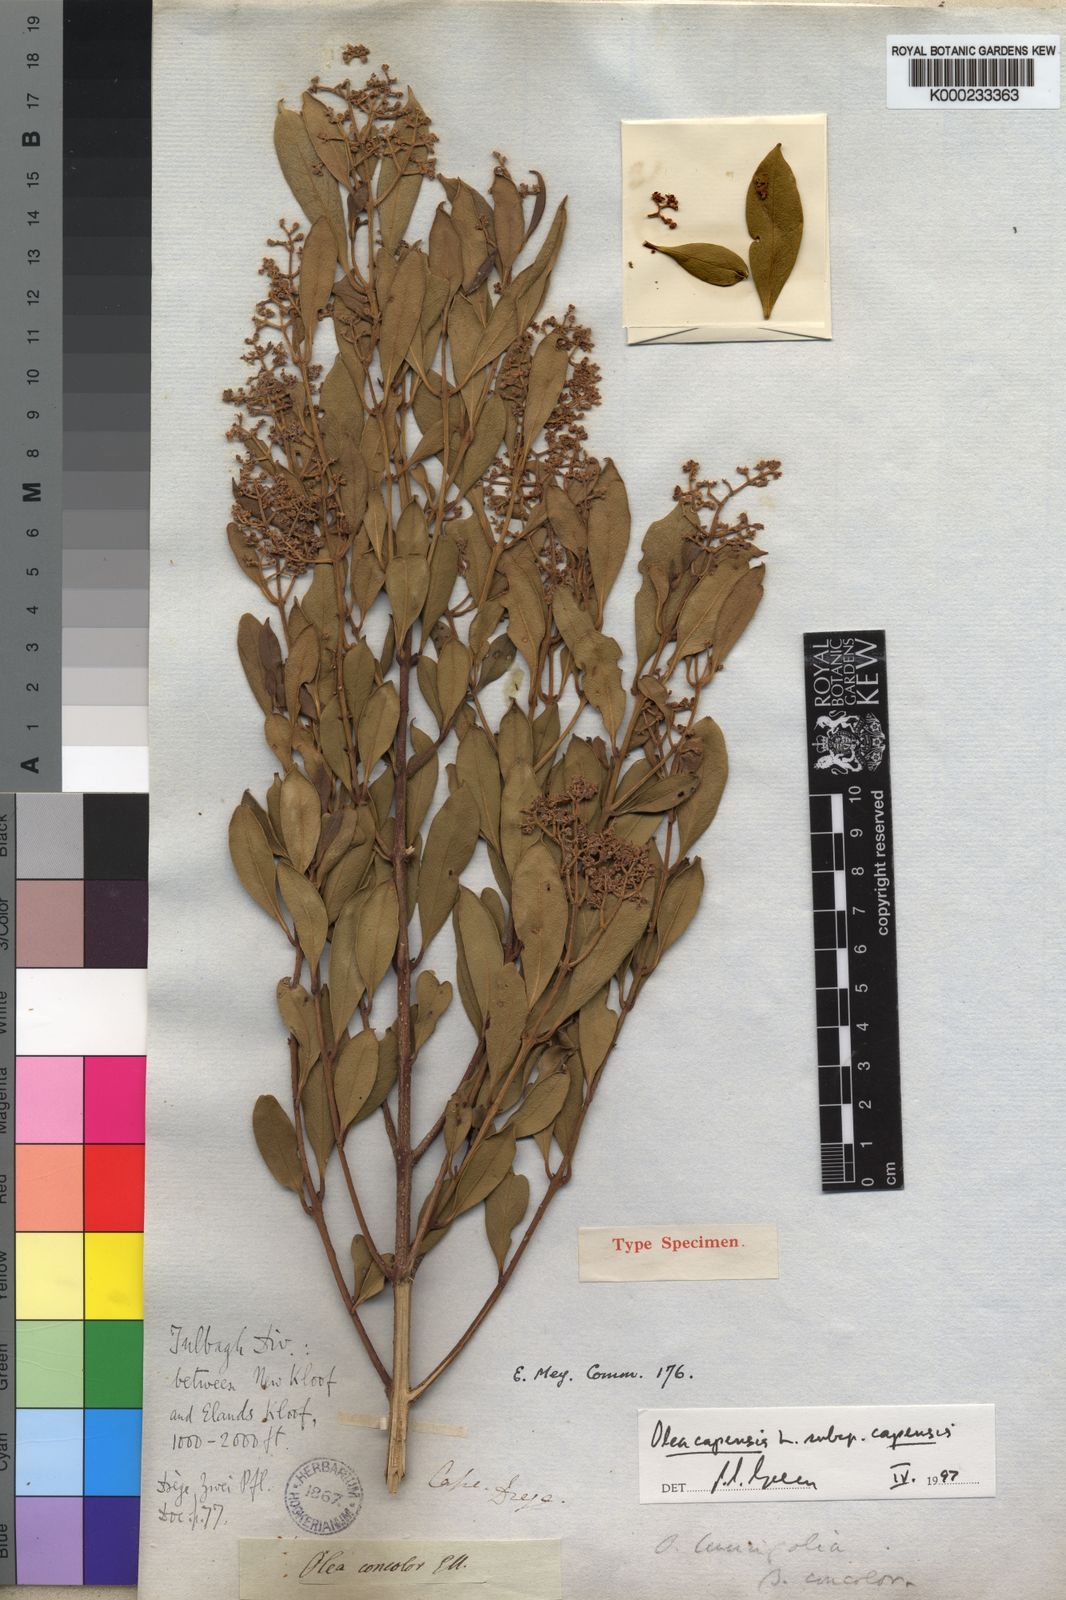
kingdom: Plantae
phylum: Tracheophyta
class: Magnoliopsida
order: Lamiales
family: Oleaceae
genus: Olea
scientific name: Olea capensis
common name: Black ironwood
